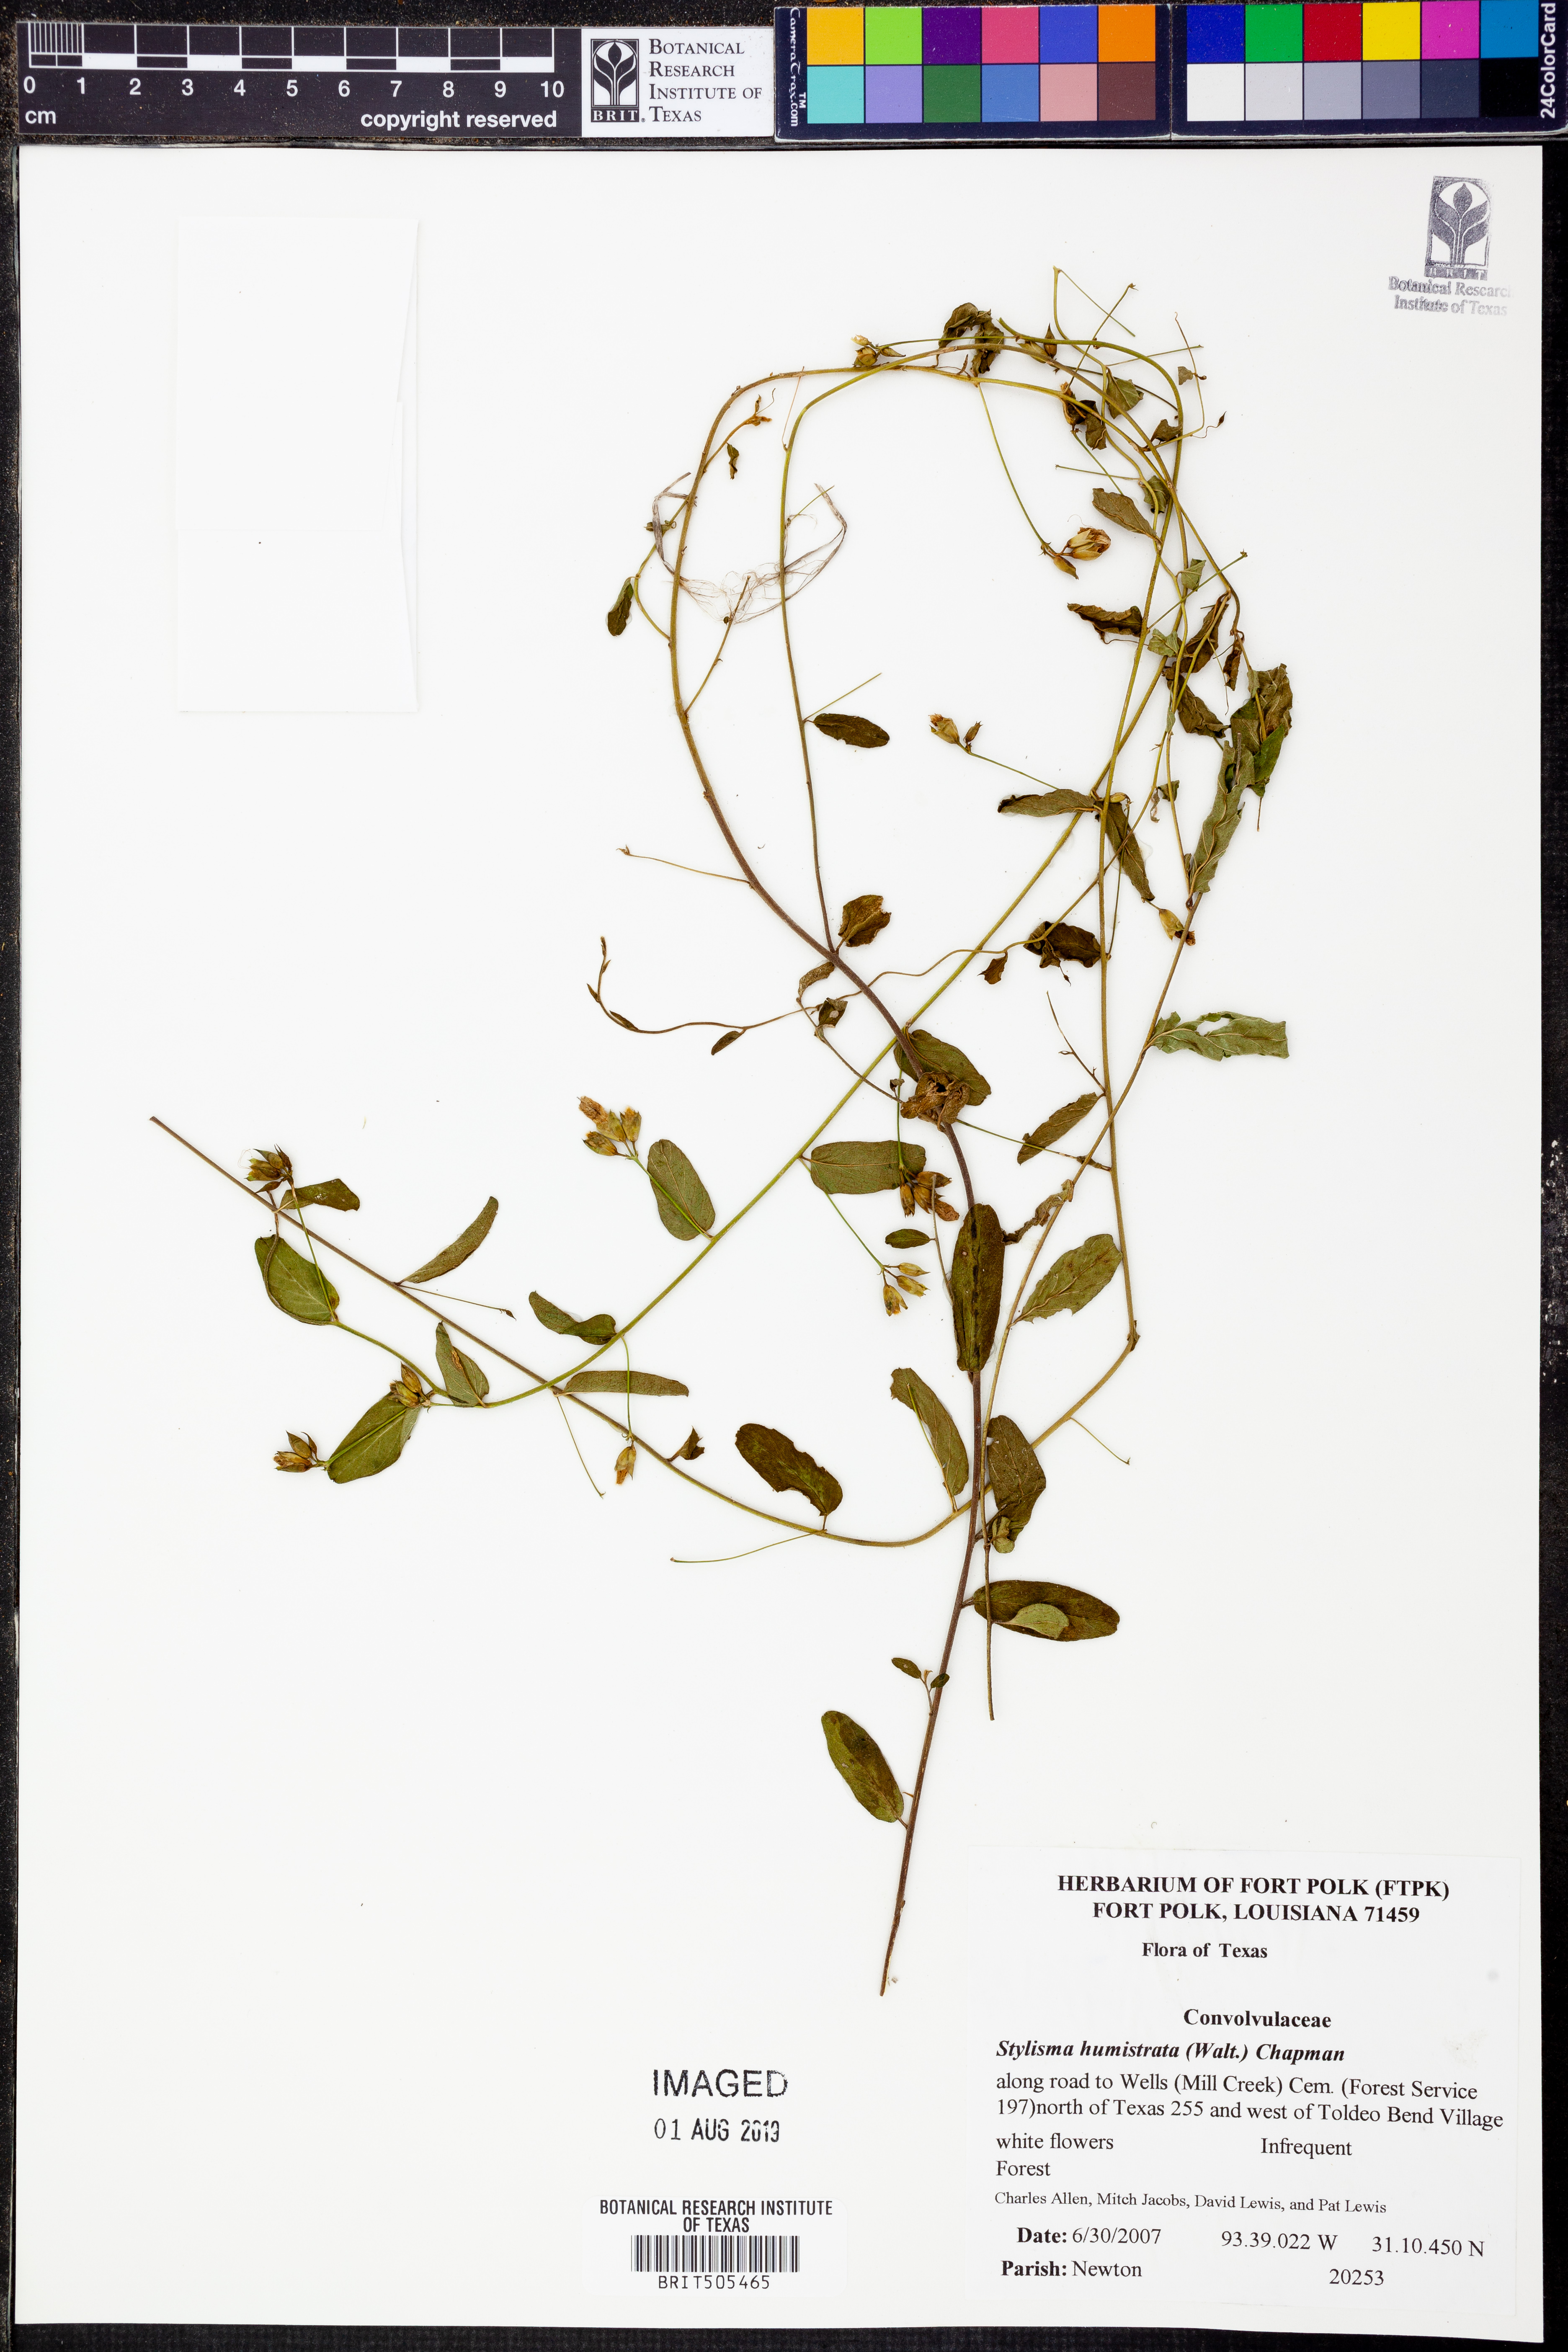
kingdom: Plantae
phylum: Tracheophyta
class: Magnoliopsida
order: Solanales
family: Convolvulaceae
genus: Stylisma
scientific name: Stylisma humistrata
